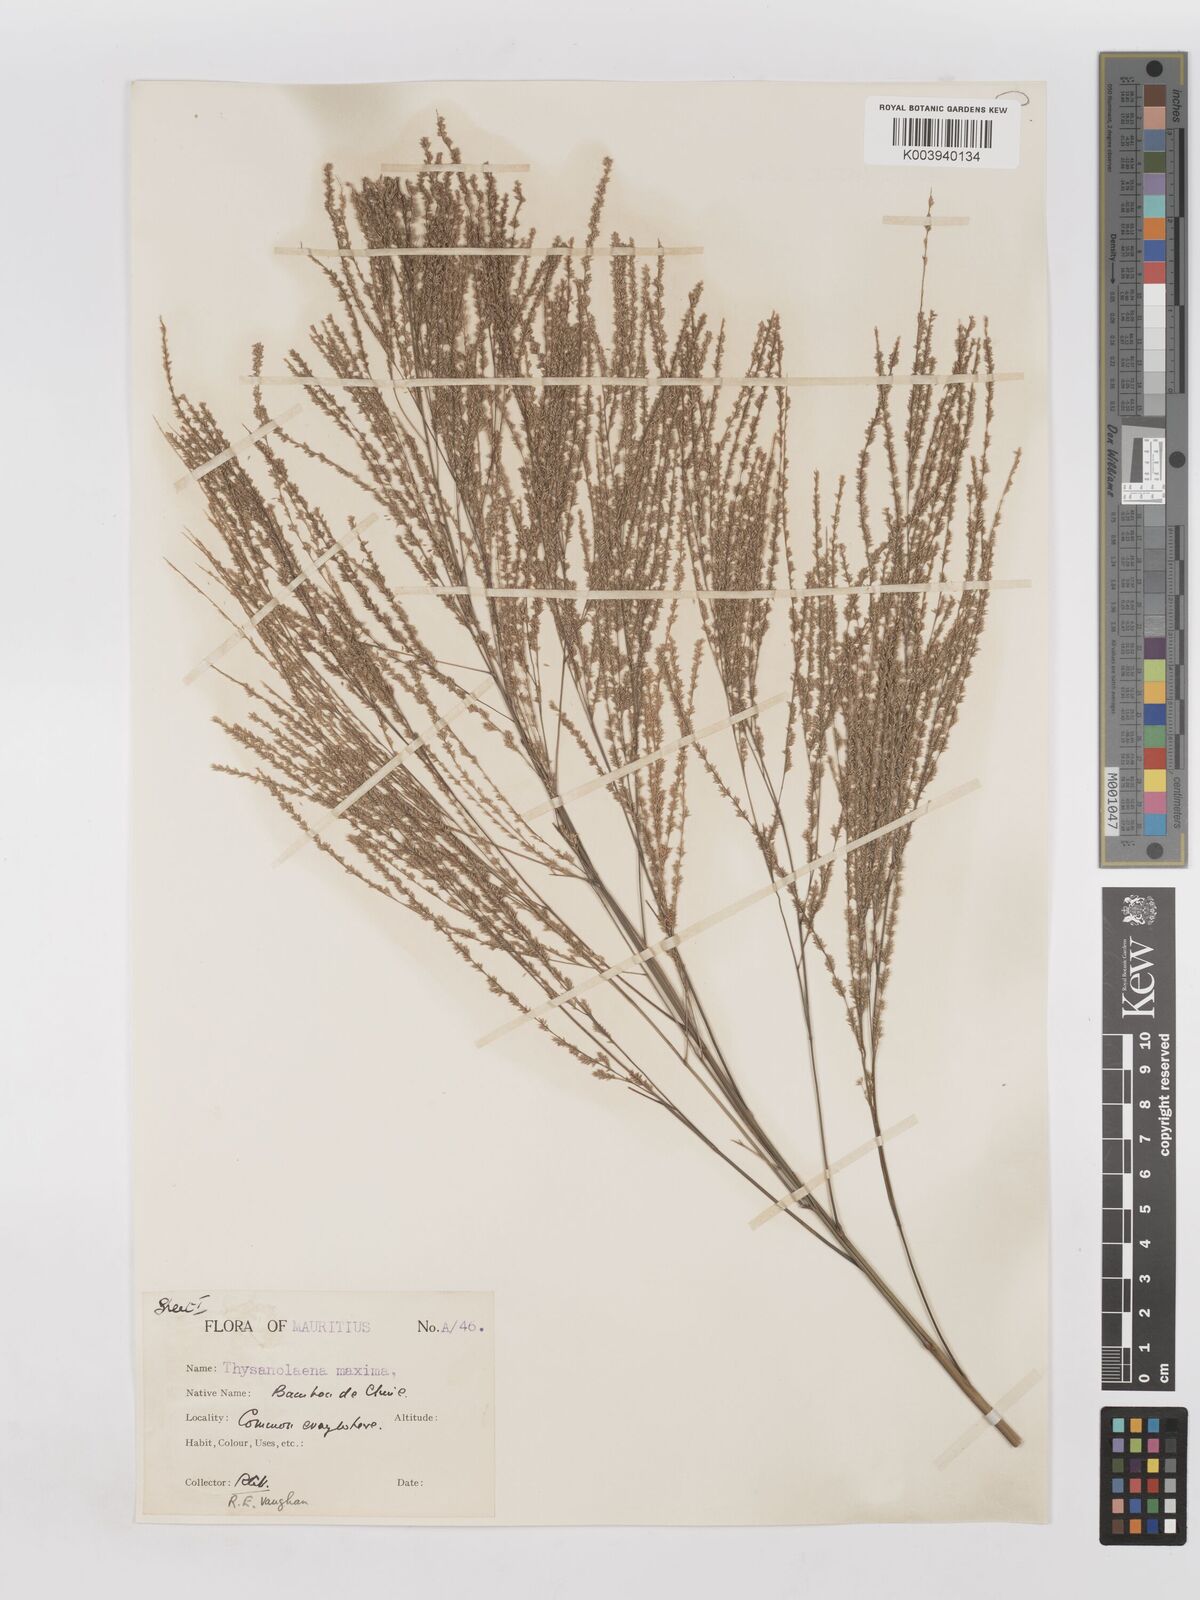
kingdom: Plantae
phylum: Tracheophyta
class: Liliopsida
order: Poales
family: Poaceae
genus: Thysanolaena
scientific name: Thysanolaena latifolia
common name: Tiger grass
